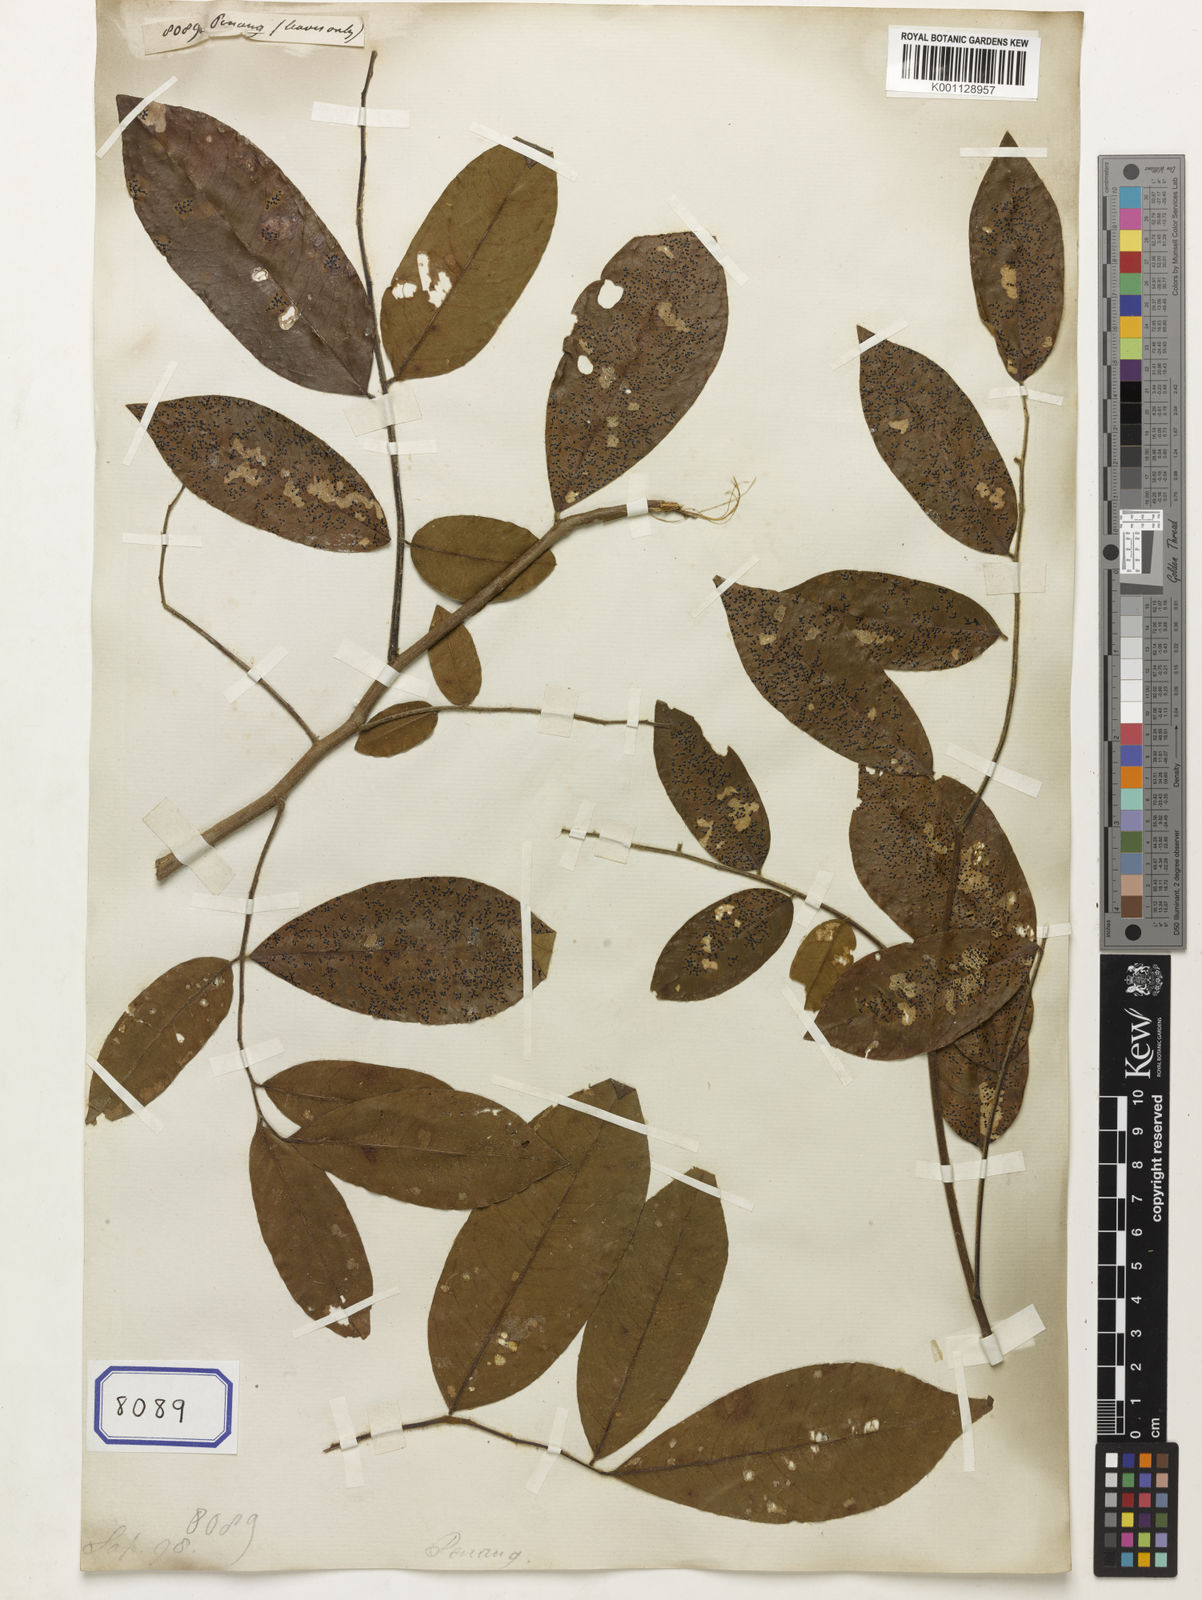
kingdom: Plantae
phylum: Tracheophyta
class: Magnoliopsida
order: Sapindales
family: Sapindaceae
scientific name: Sapindaceae
